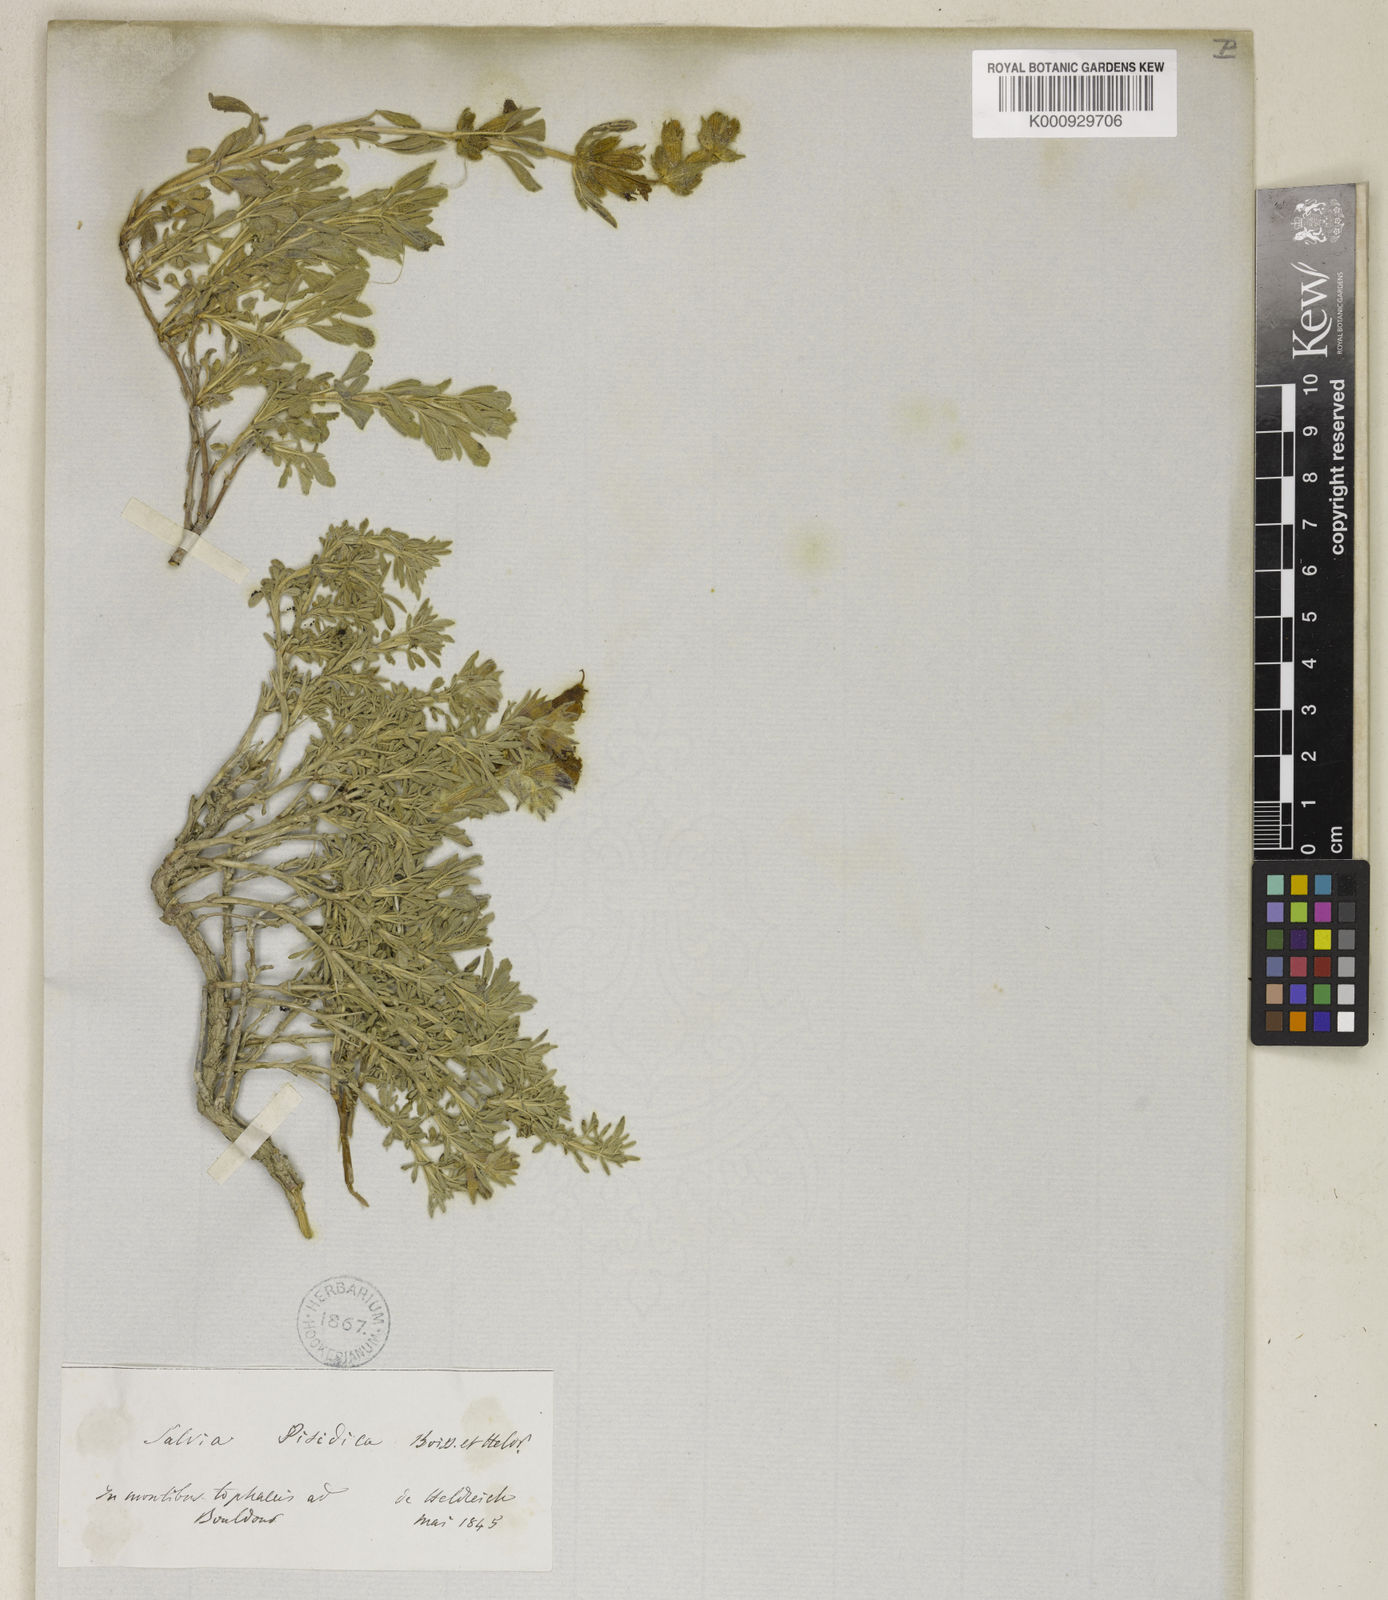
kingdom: Plantae
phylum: Tracheophyta
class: Magnoliopsida
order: Lamiales
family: Lamiaceae
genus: Salvia
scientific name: Salvia pisidica
